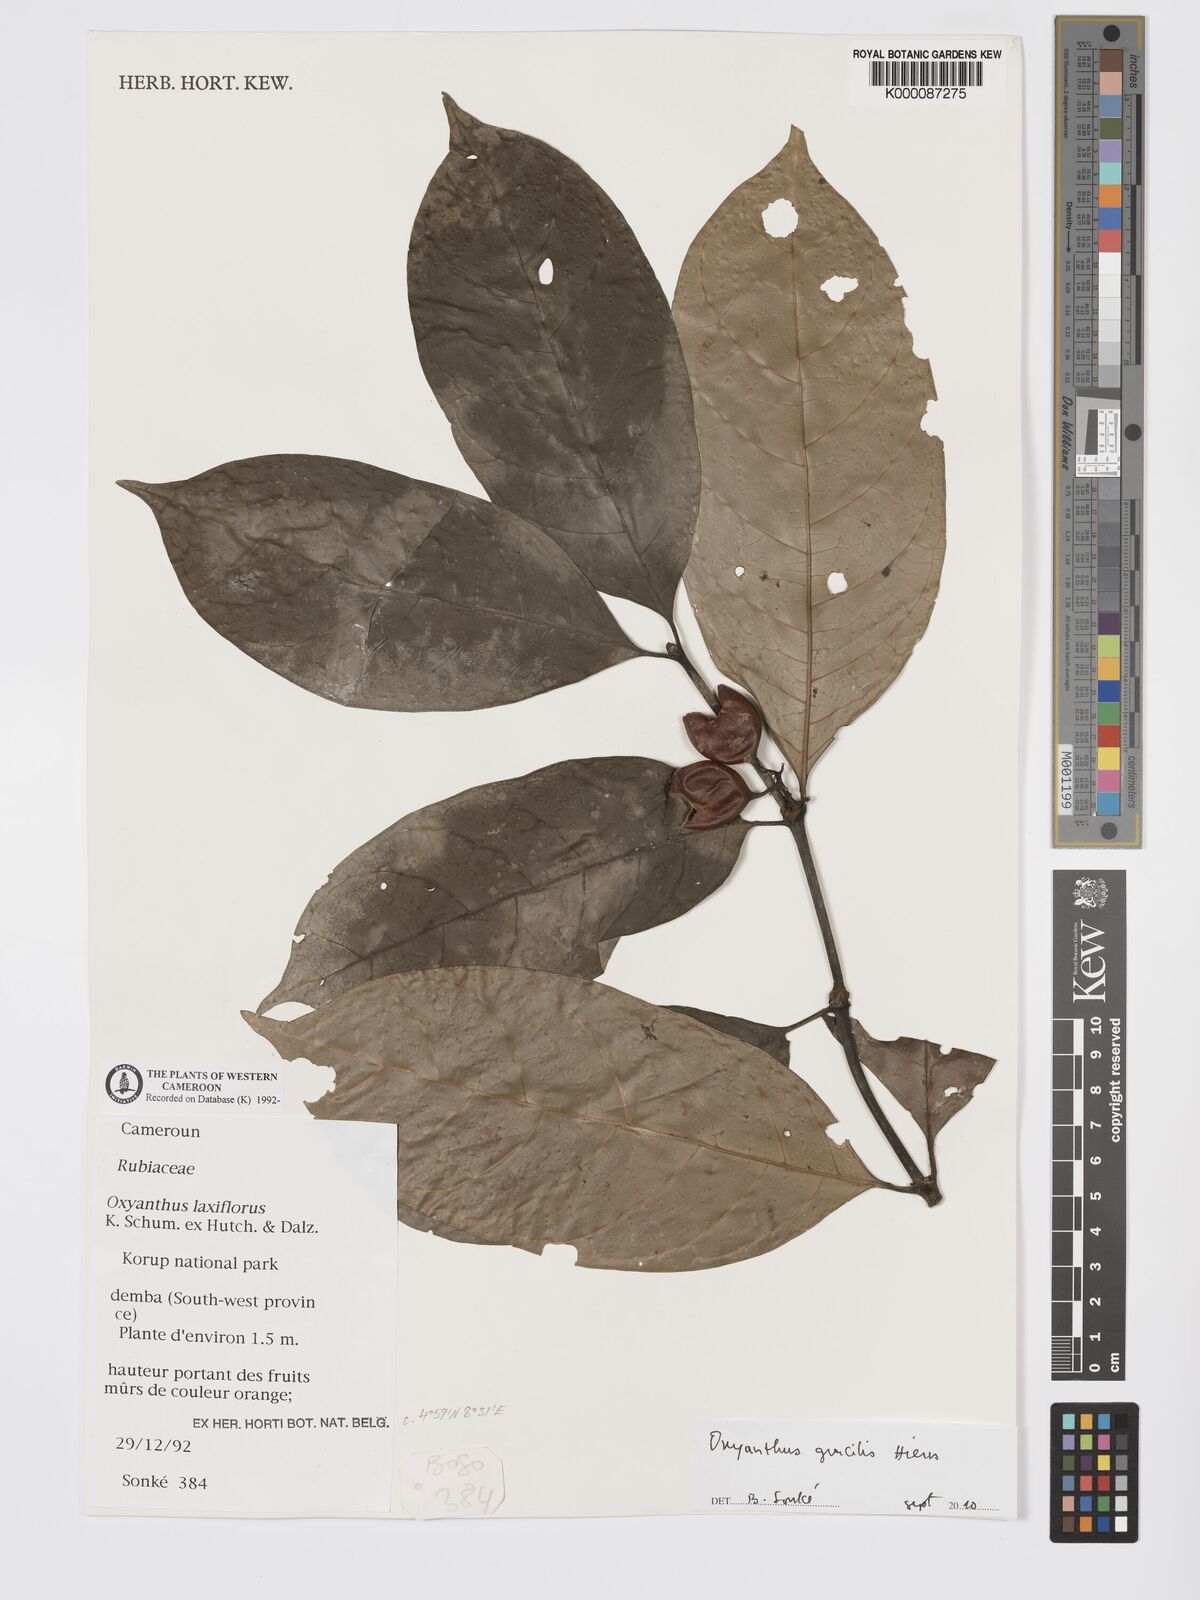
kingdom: Plantae
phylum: Tracheophyta
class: Magnoliopsida
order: Gentianales
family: Rubiaceae
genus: Oxyanthus
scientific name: Oxyanthus laxiflorus
